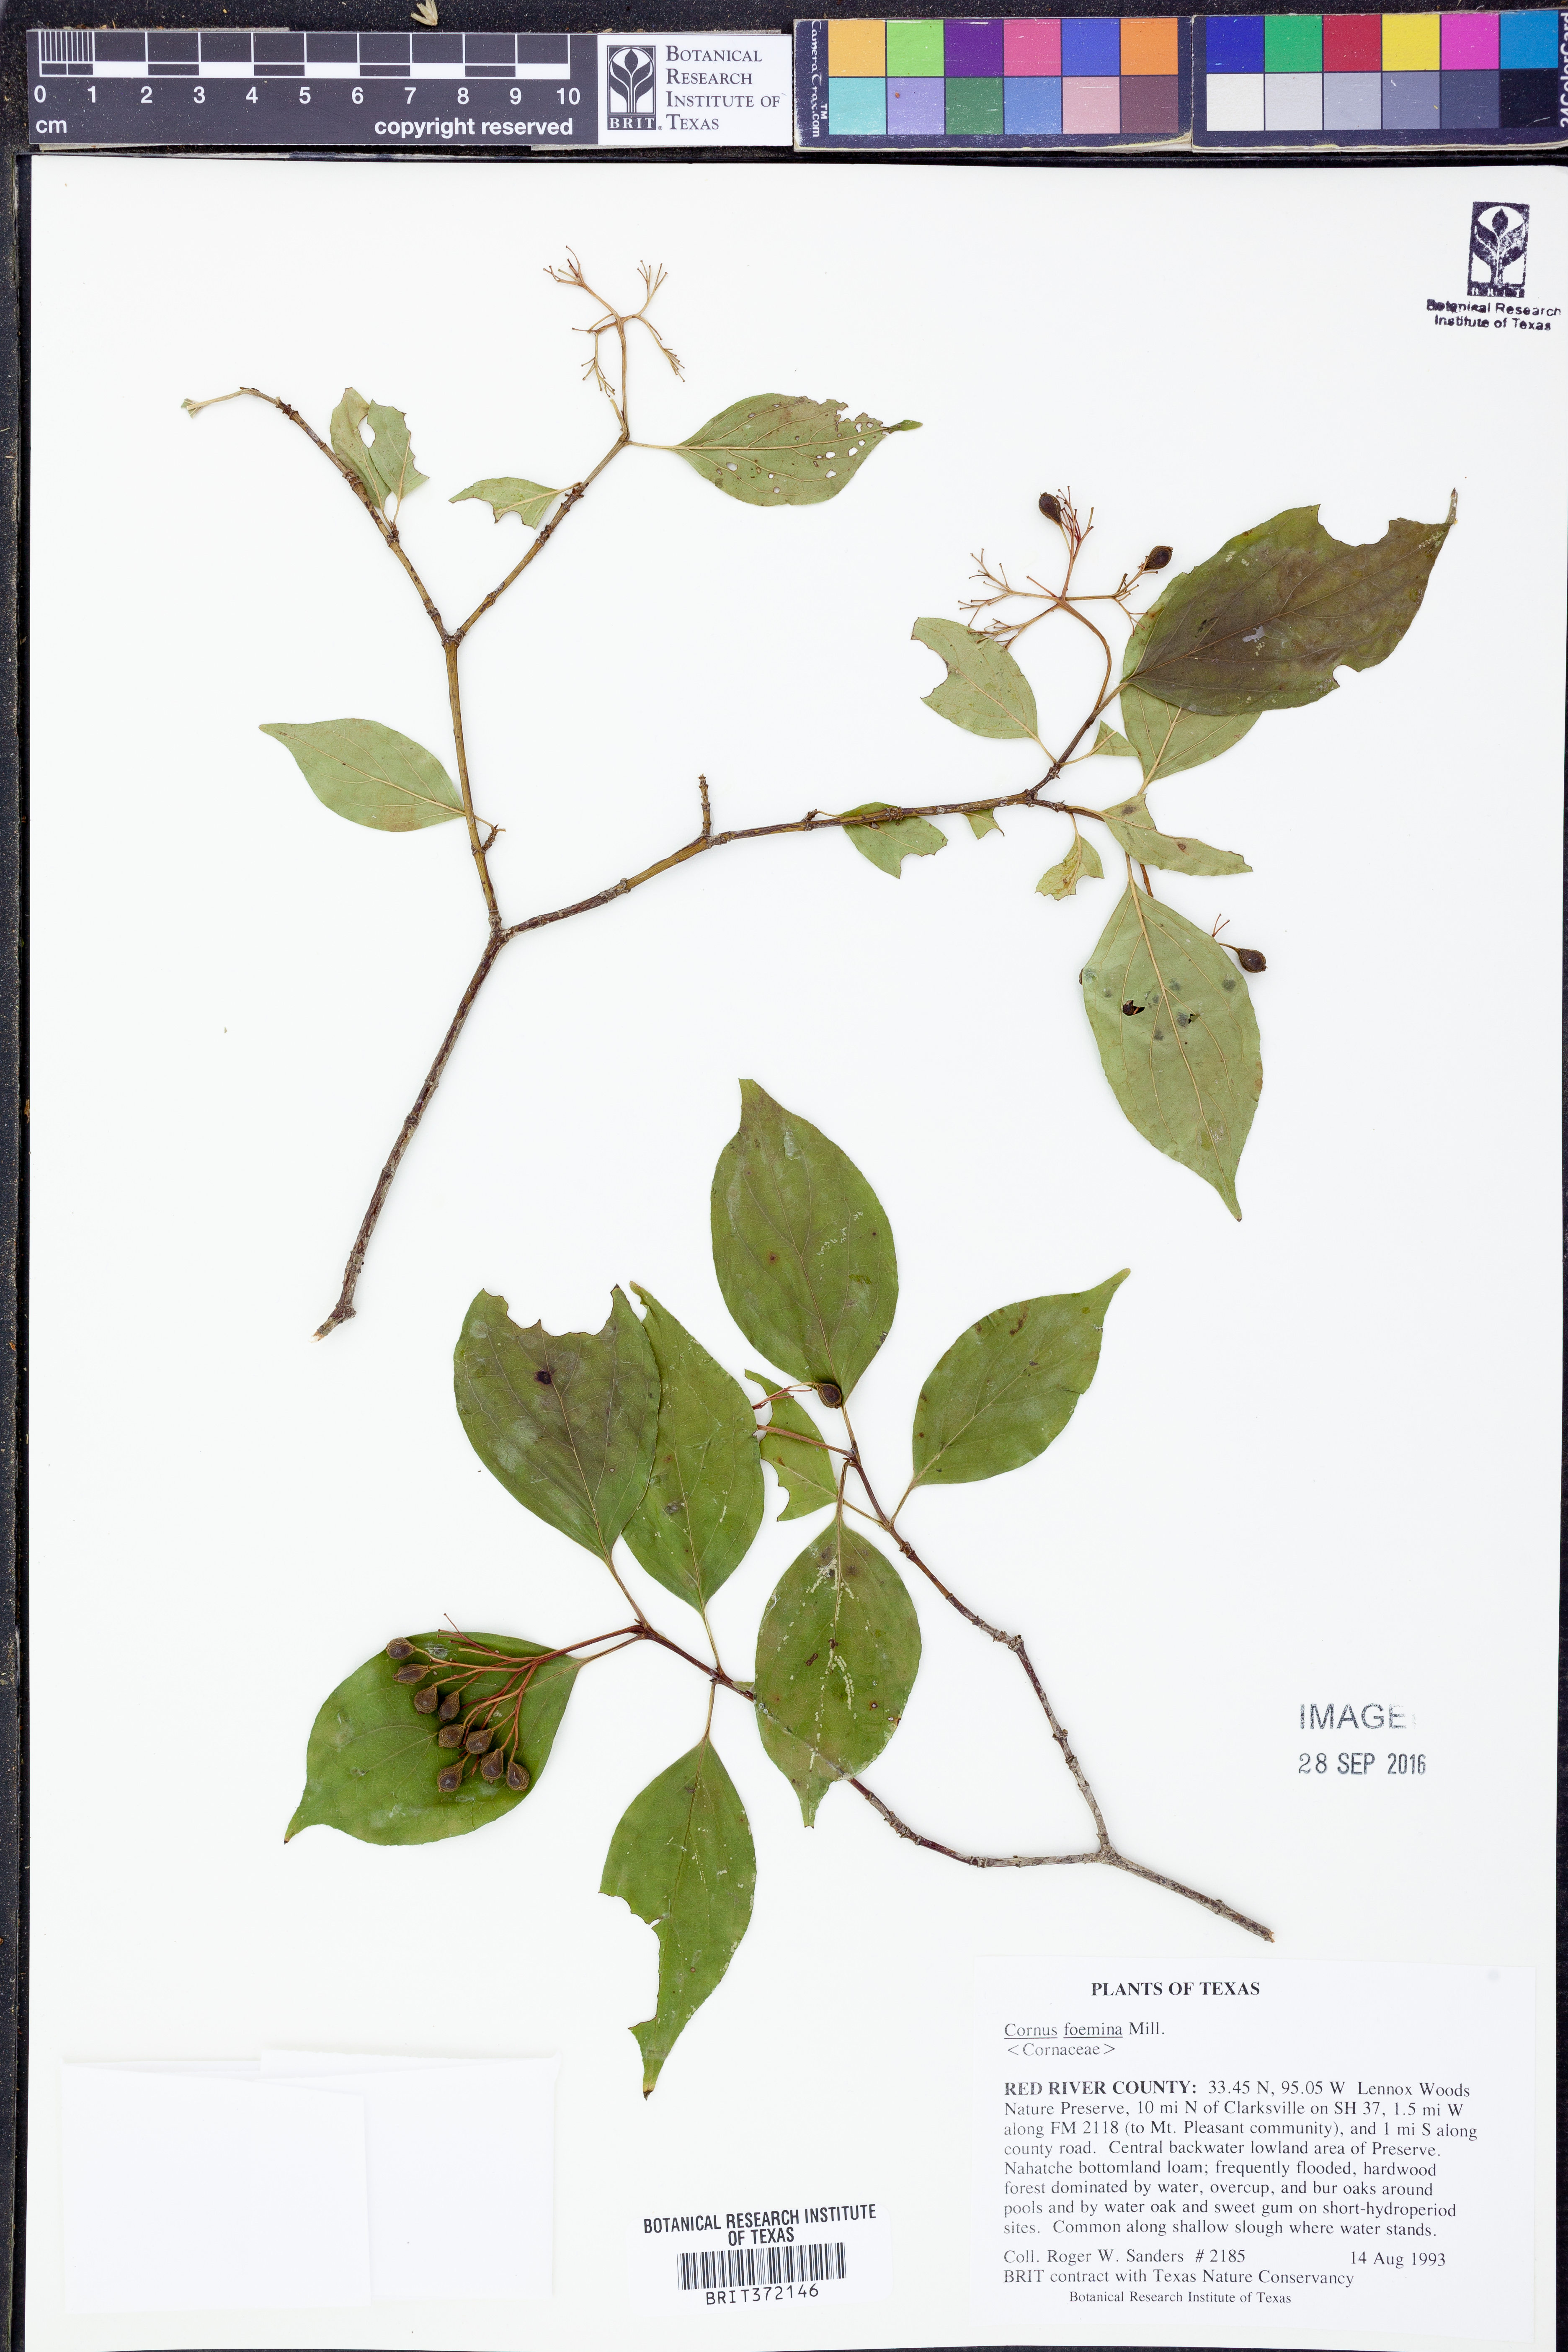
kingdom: Plantae
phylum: Tracheophyta
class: Magnoliopsida
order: Cornales
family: Cornaceae
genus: Cornus
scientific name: Cornus foemina
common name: Swamp dogwood
